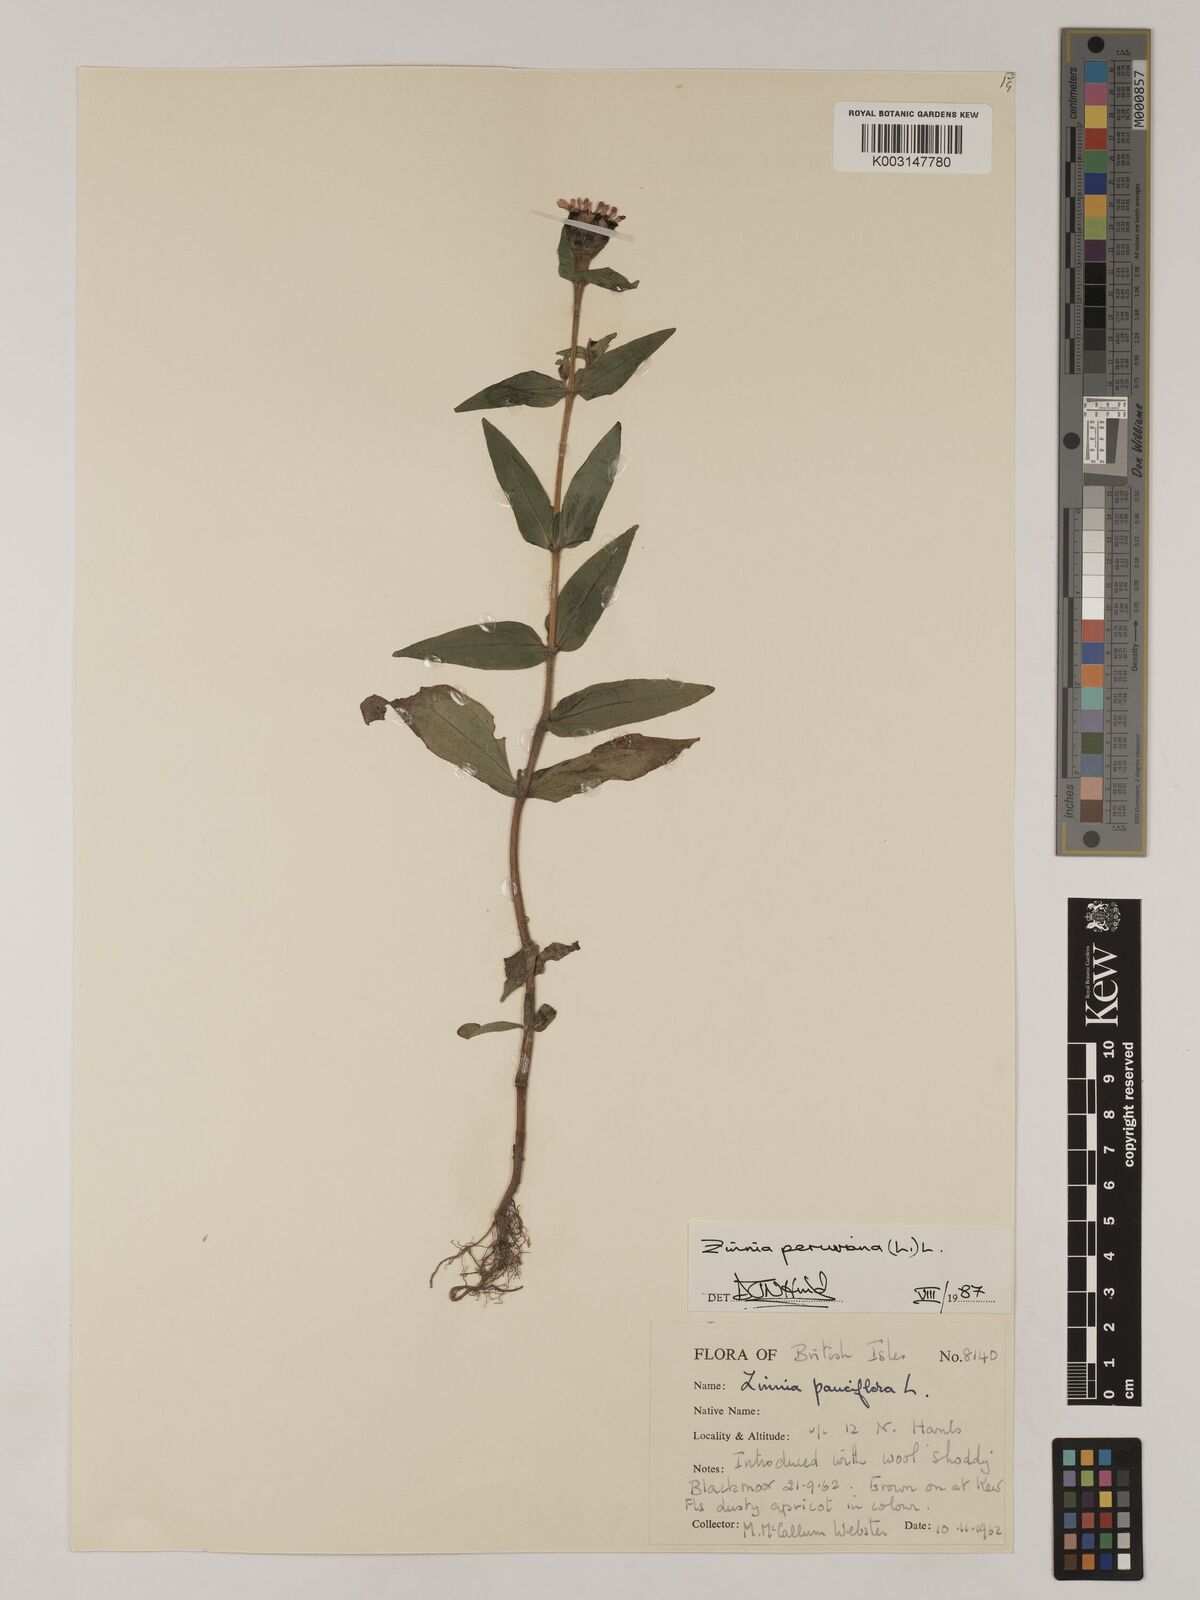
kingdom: Plantae
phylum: Tracheophyta
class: Magnoliopsida
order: Asterales
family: Asteraceae
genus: Zinnia
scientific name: Zinnia peruviana
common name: Peruvian zinnia
